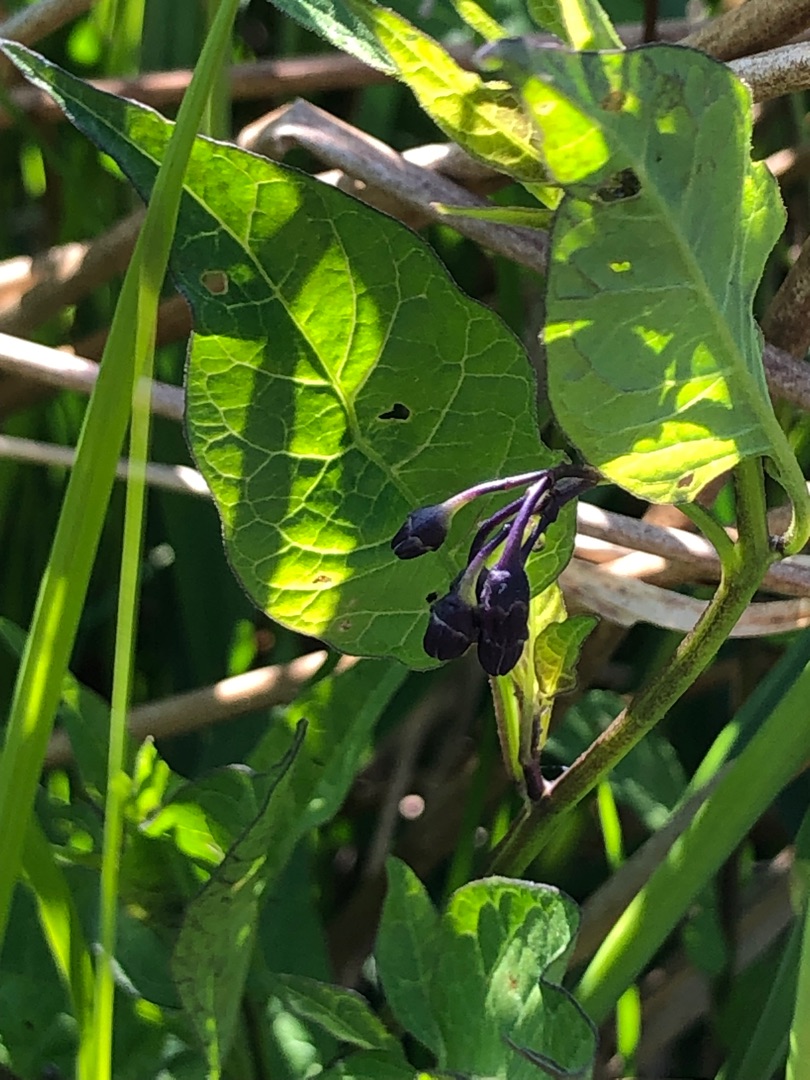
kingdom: Plantae
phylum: Tracheophyta
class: Magnoliopsida
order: Solanales
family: Solanaceae
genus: Solanum
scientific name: Solanum dulcamara
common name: Bittersød natskygge
